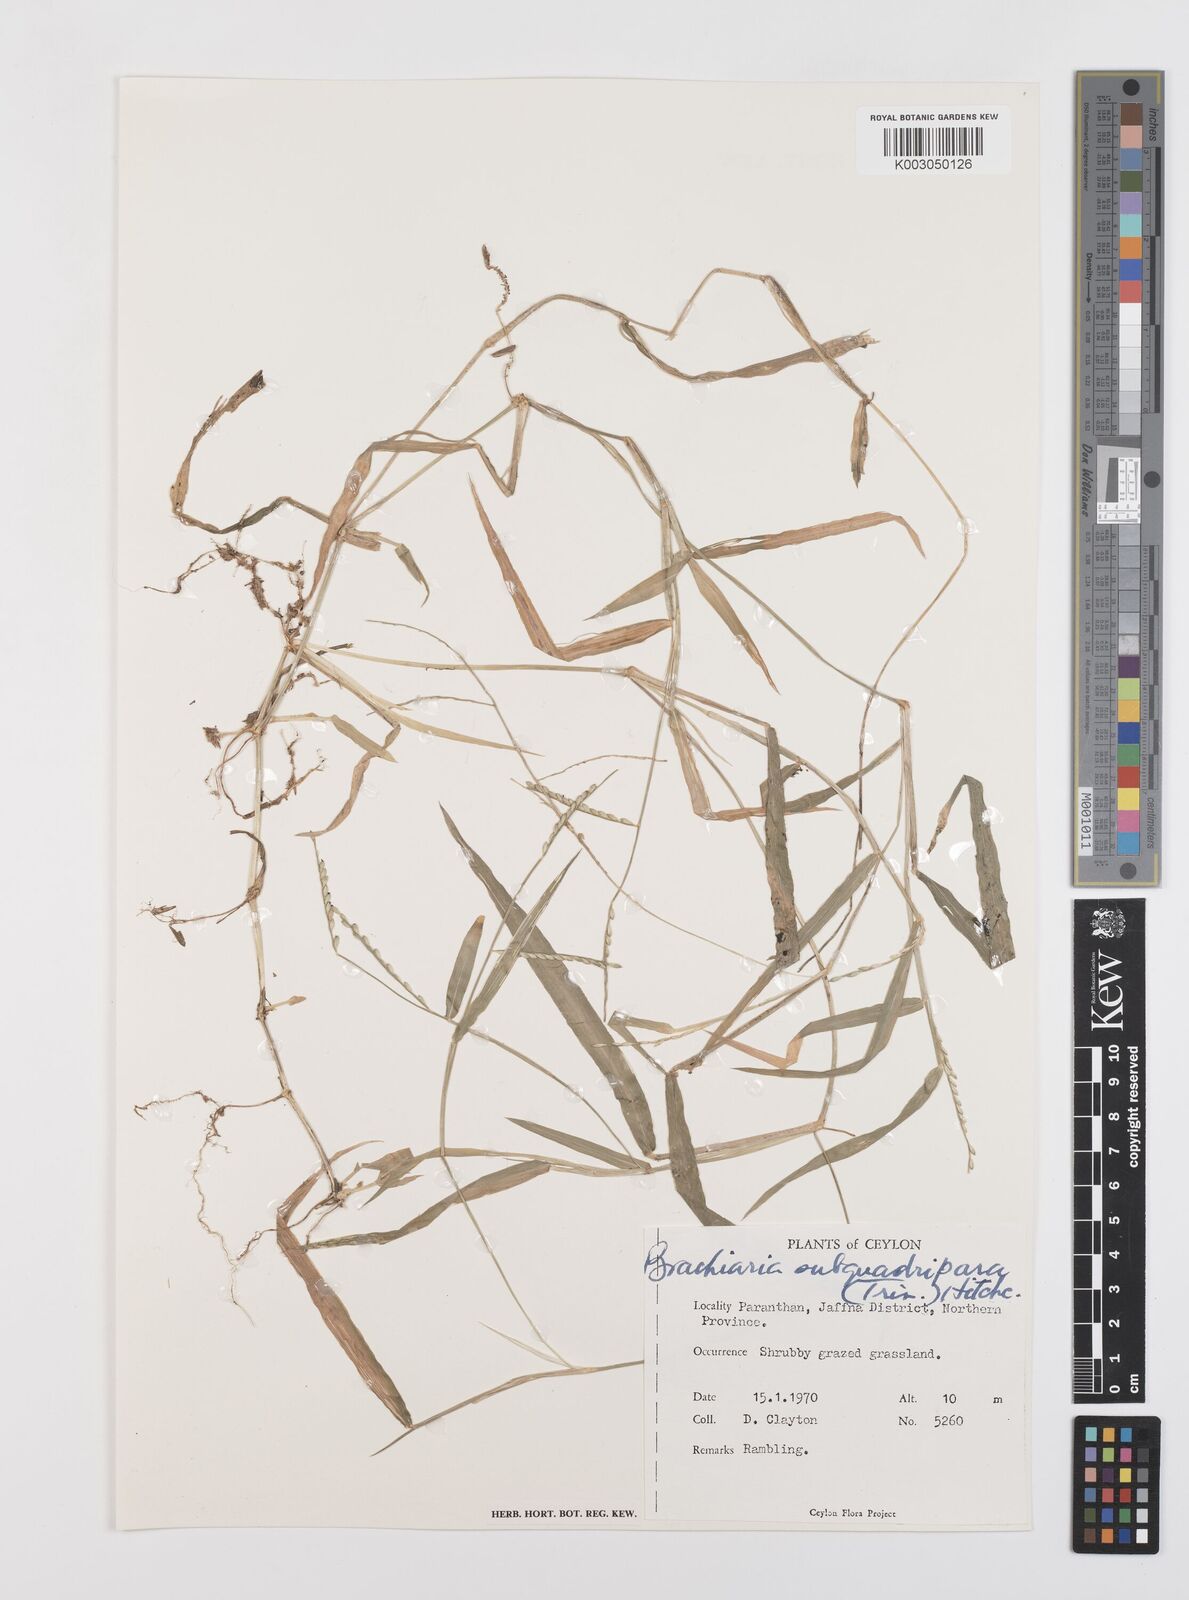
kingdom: Plantae
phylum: Tracheophyta
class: Liliopsida
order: Poales
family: Poaceae
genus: Urochloa
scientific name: Urochloa subquadripara
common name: Armgrass millet
